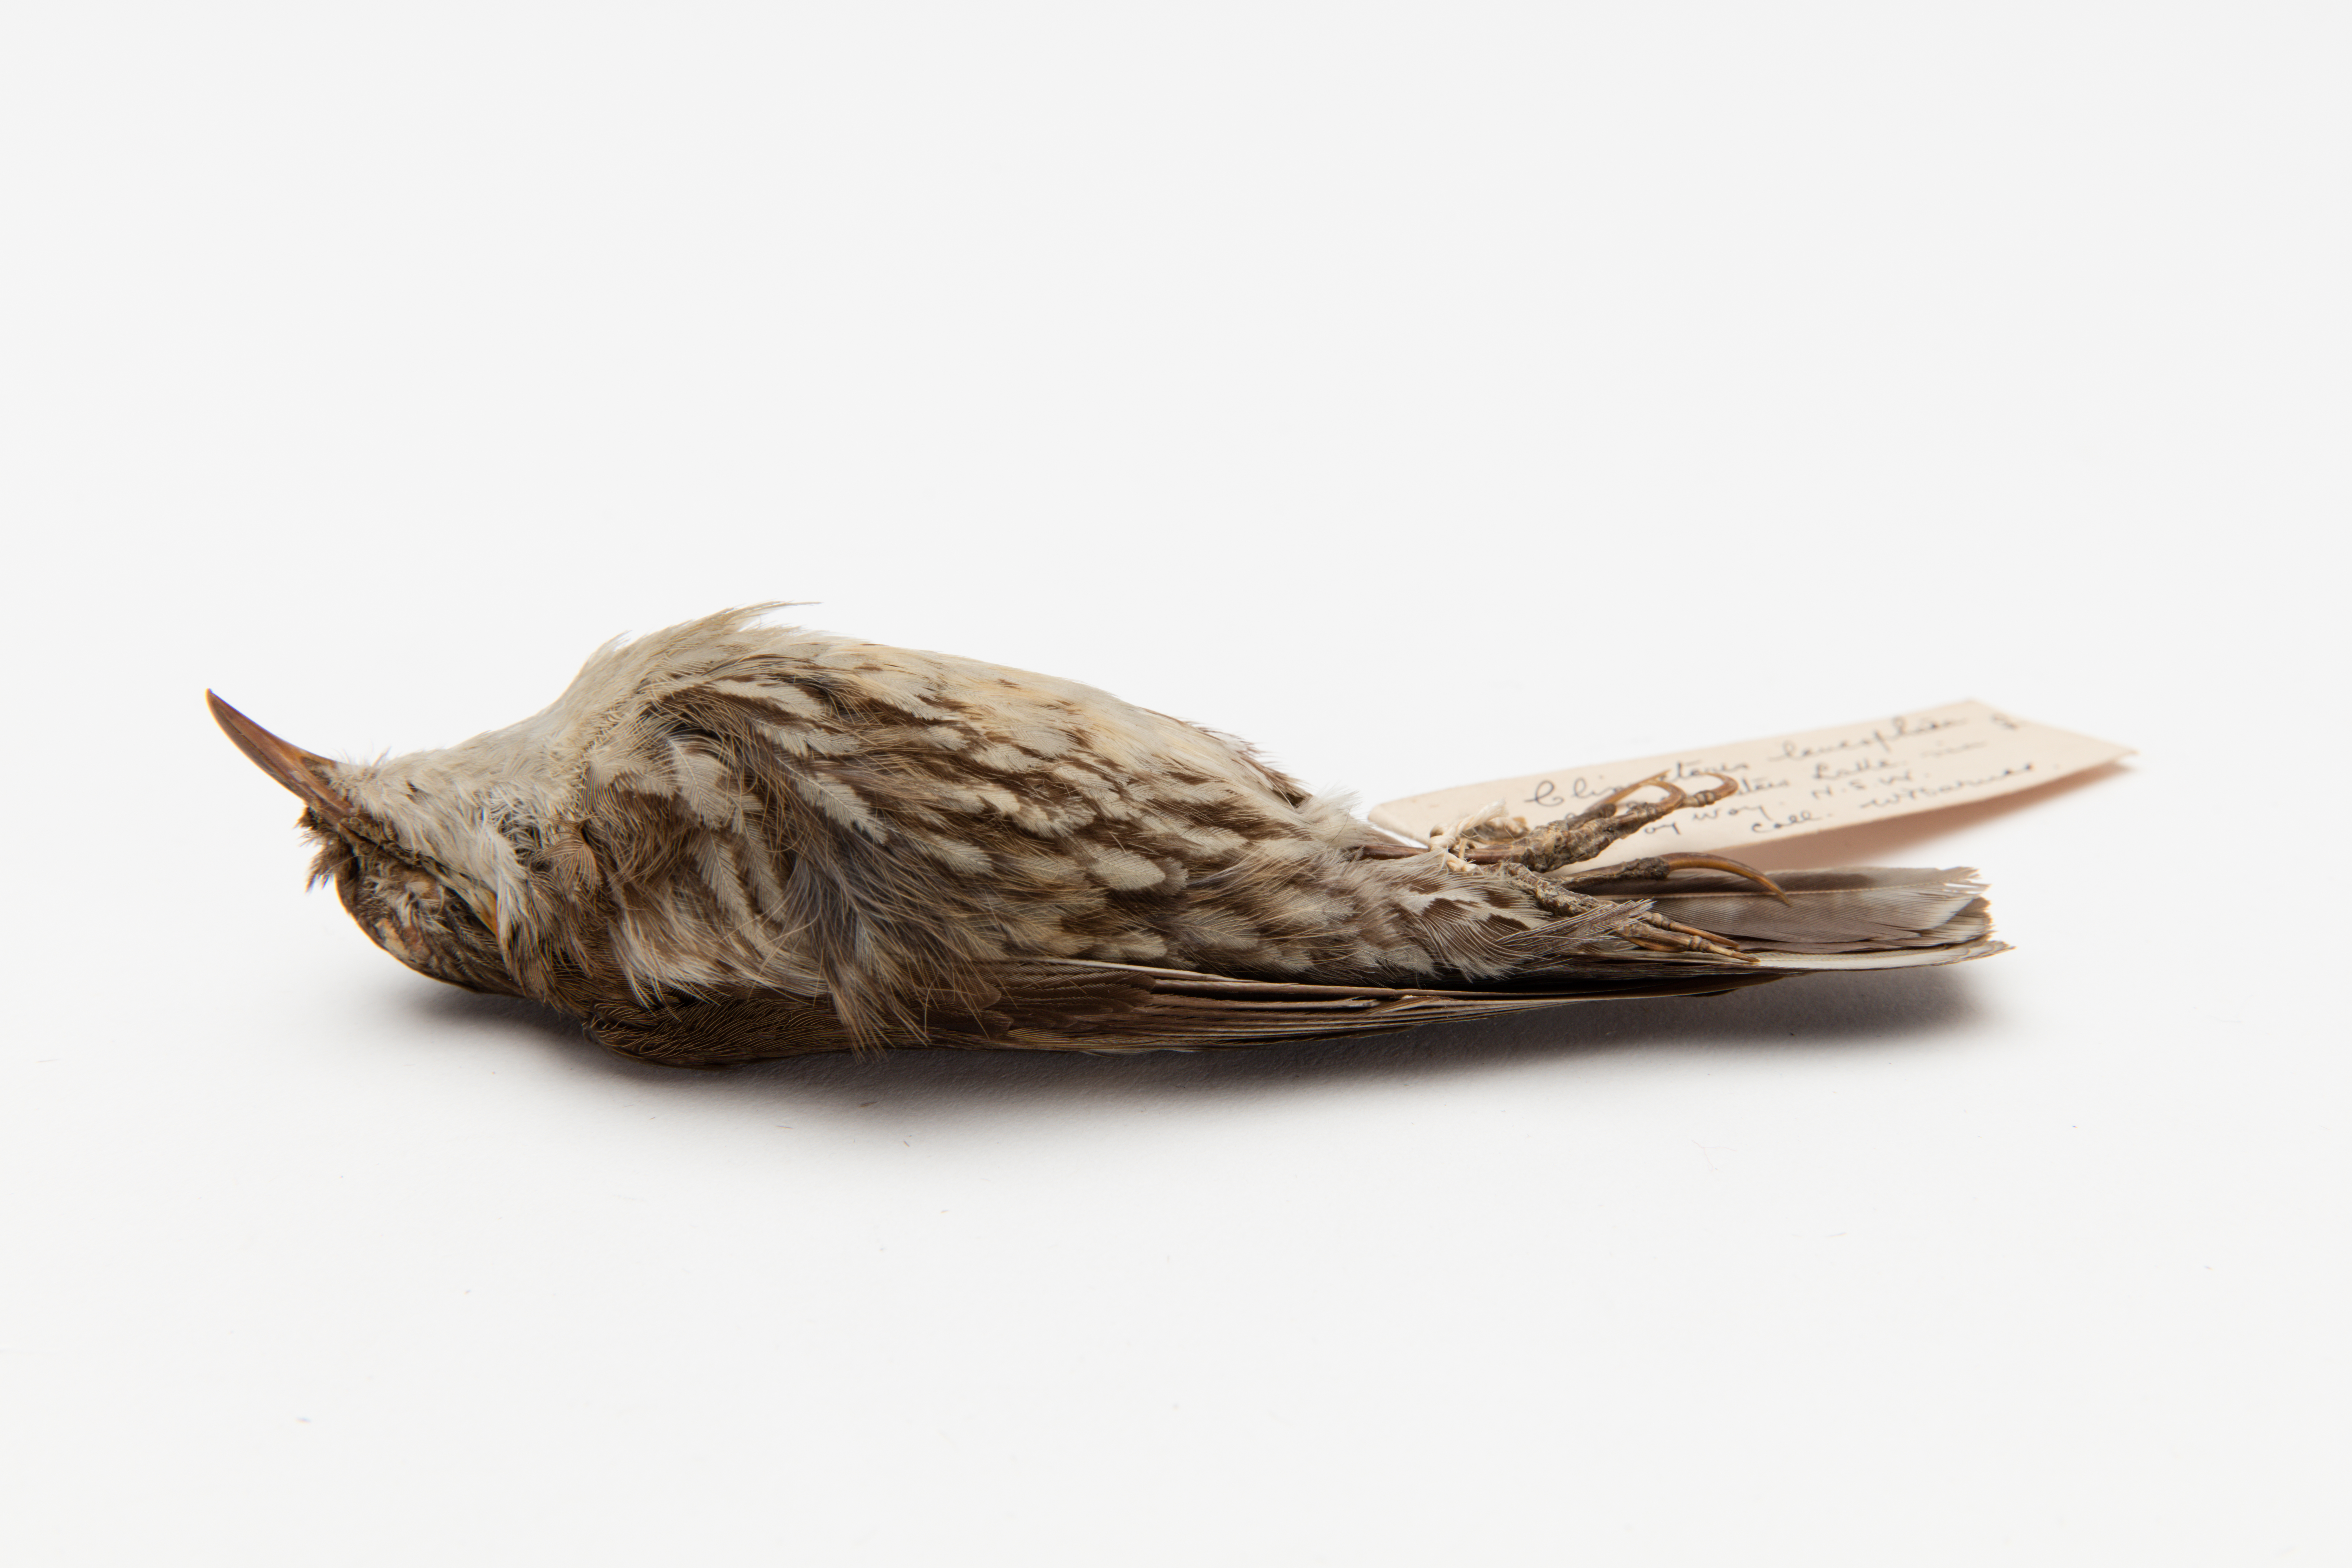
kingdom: Animalia
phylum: Chordata
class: Aves
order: Passeriformes
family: Climacteridae
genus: Climacteris
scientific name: Climacteris
